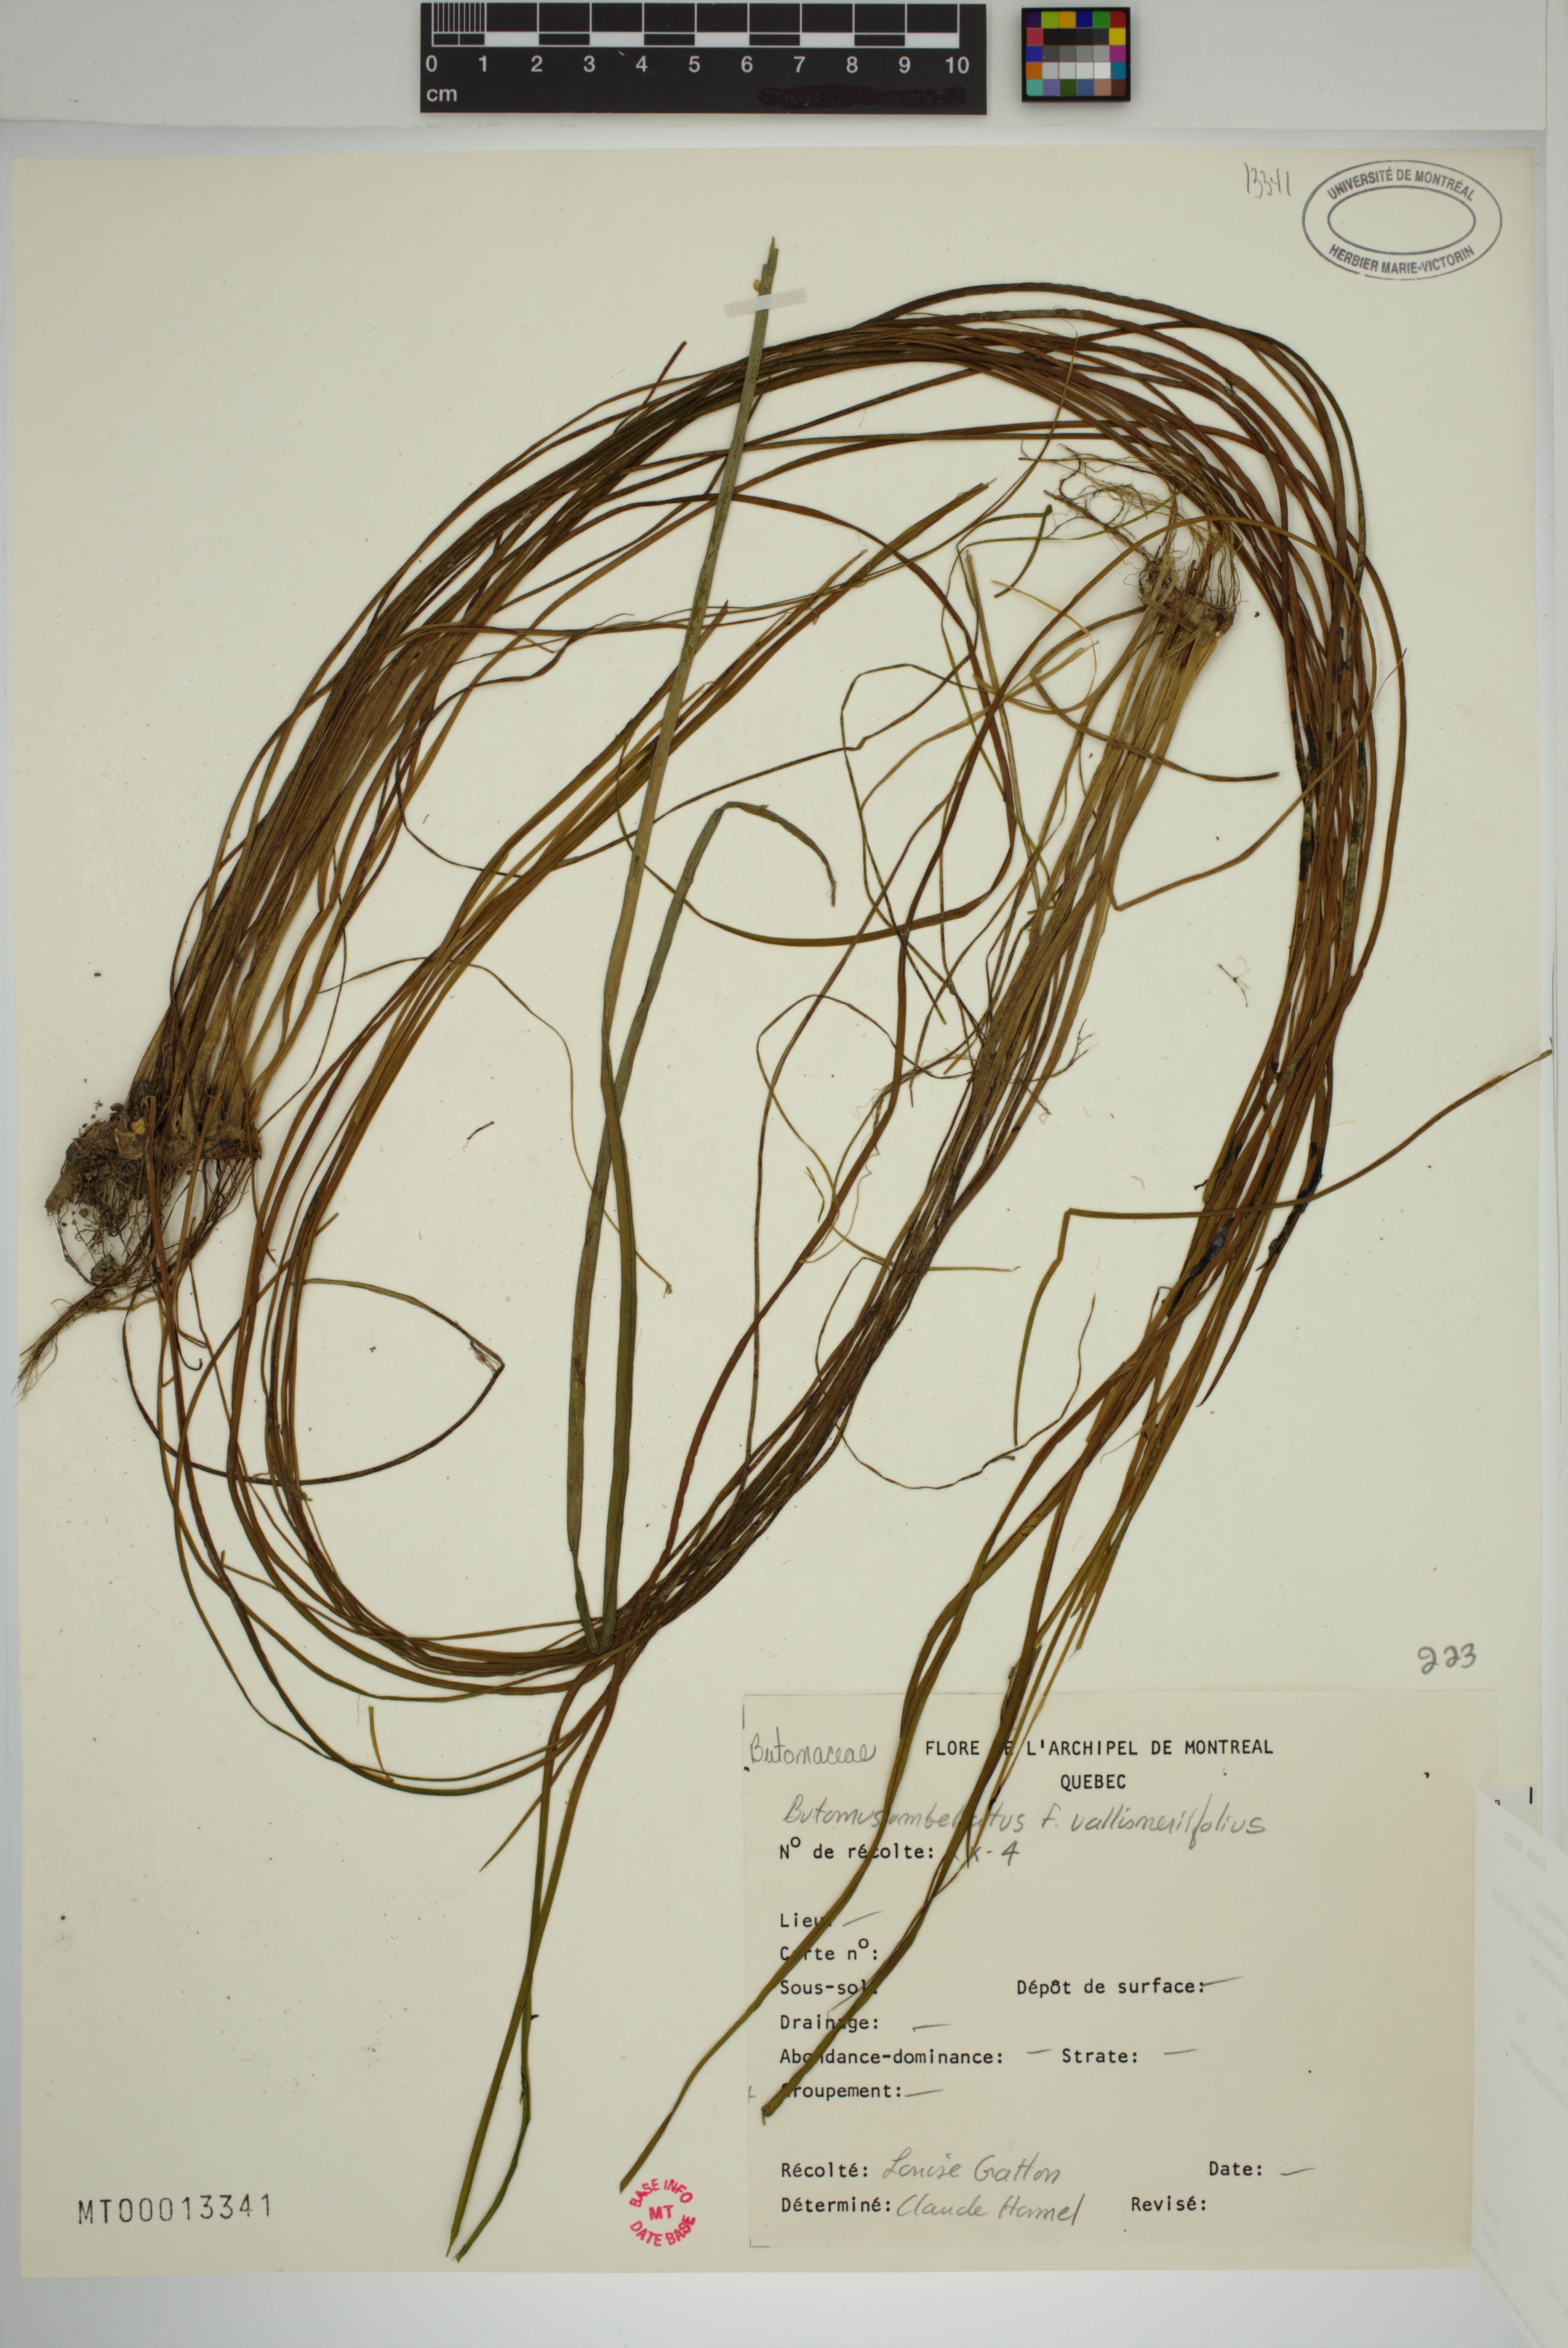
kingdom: Plantae
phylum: Tracheophyta
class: Liliopsida
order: Alismatales
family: Butomaceae
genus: Butomus
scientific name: Butomus umbellatus
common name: Flowering-rush
